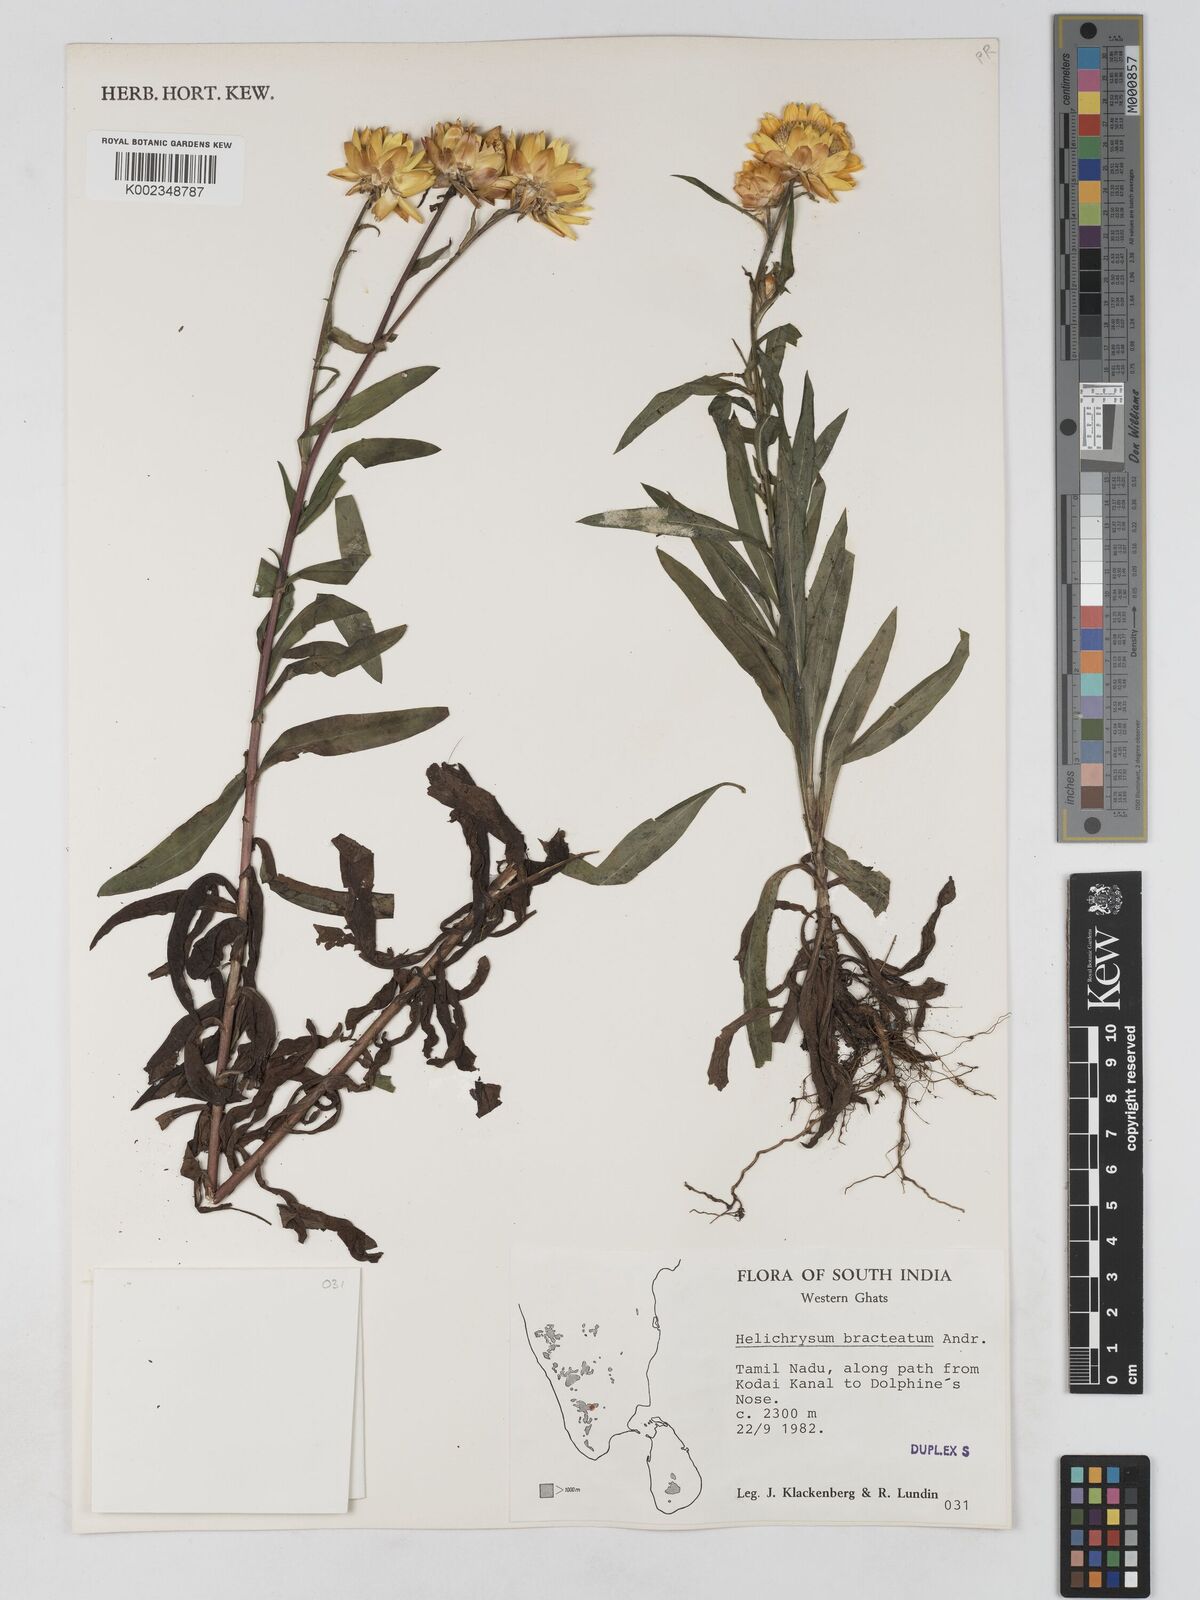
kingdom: Plantae
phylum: Tracheophyta
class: Magnoliopsida
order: Asterales
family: Asteraceae
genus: Xerochrysum
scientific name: Xerochrysum bracteatum
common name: Bracted strawflower
